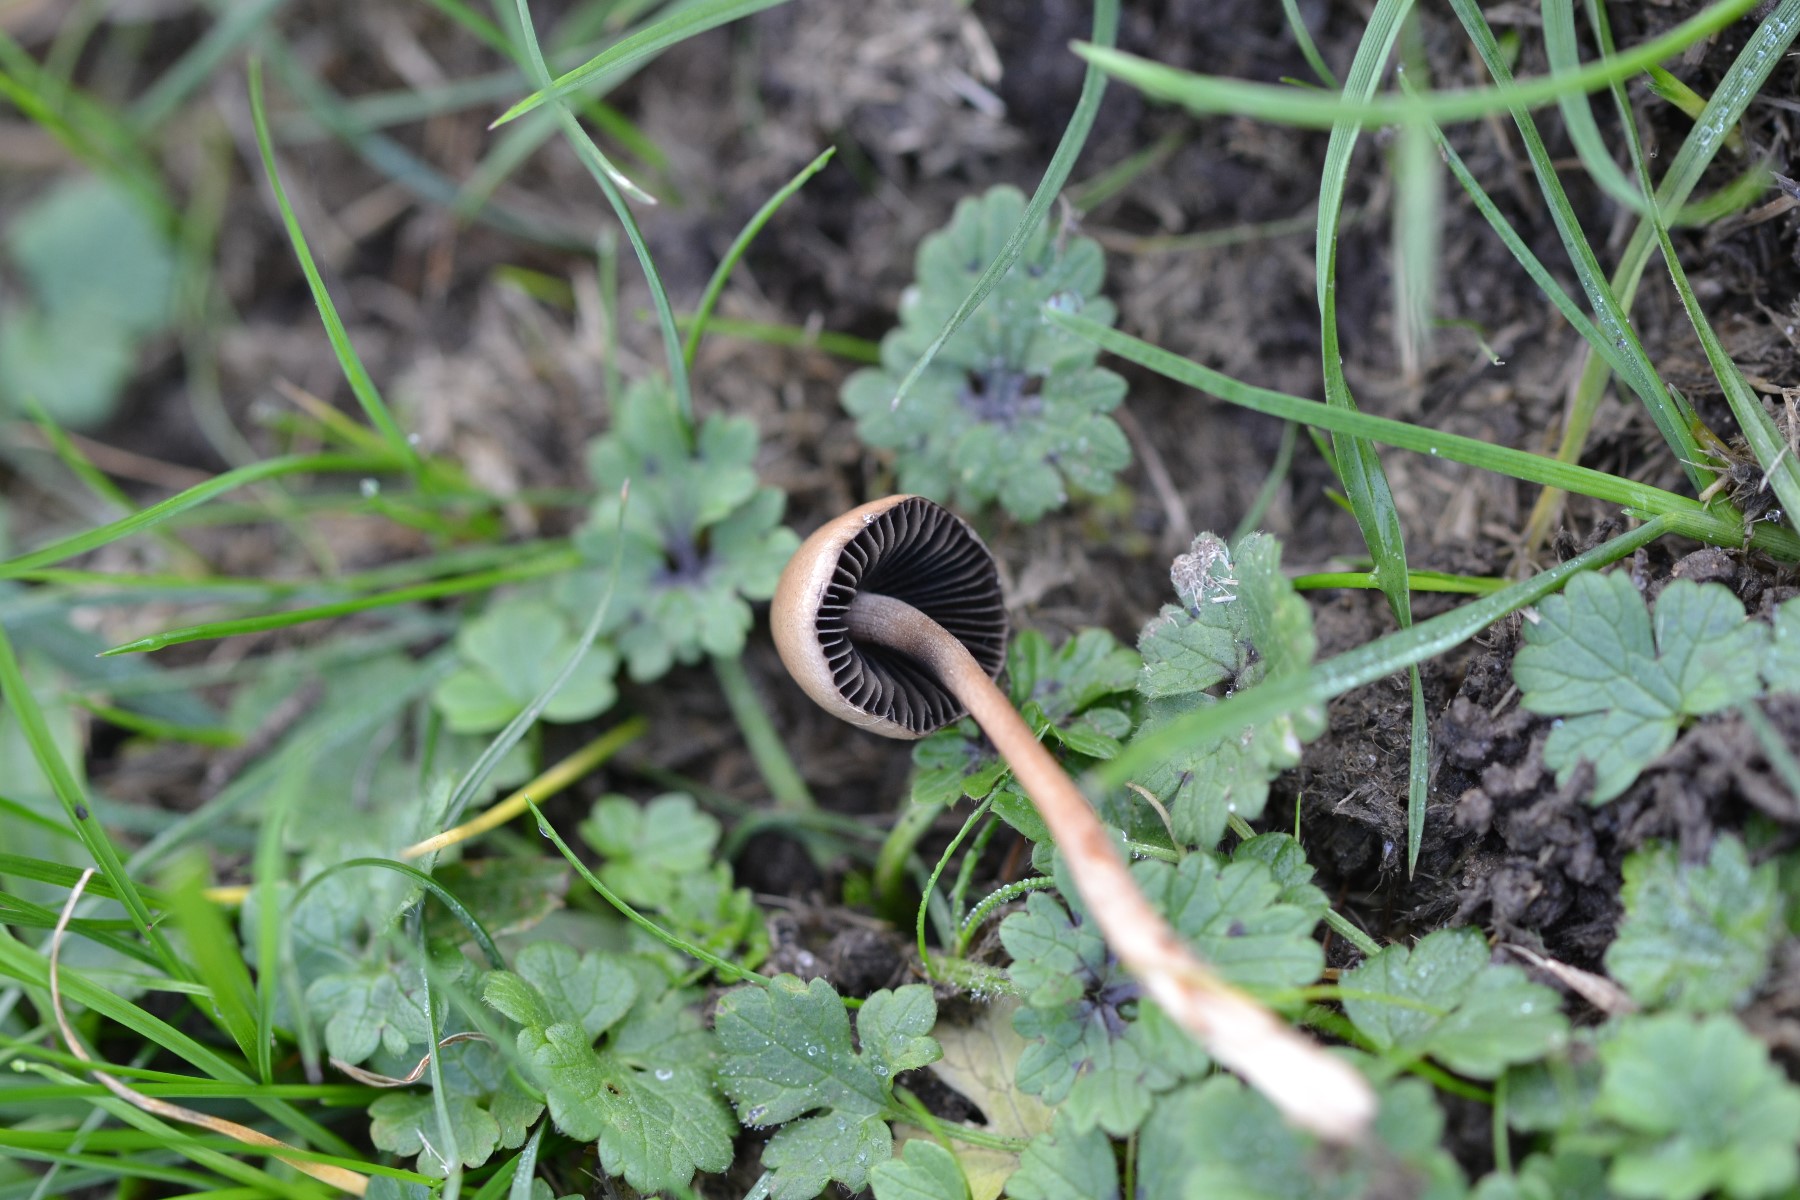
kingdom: Fungi
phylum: Basidiomycota
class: Agaricomycetes
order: Agaricales
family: Bolbitiaceae
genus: Panaeolus
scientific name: Panaeolus
